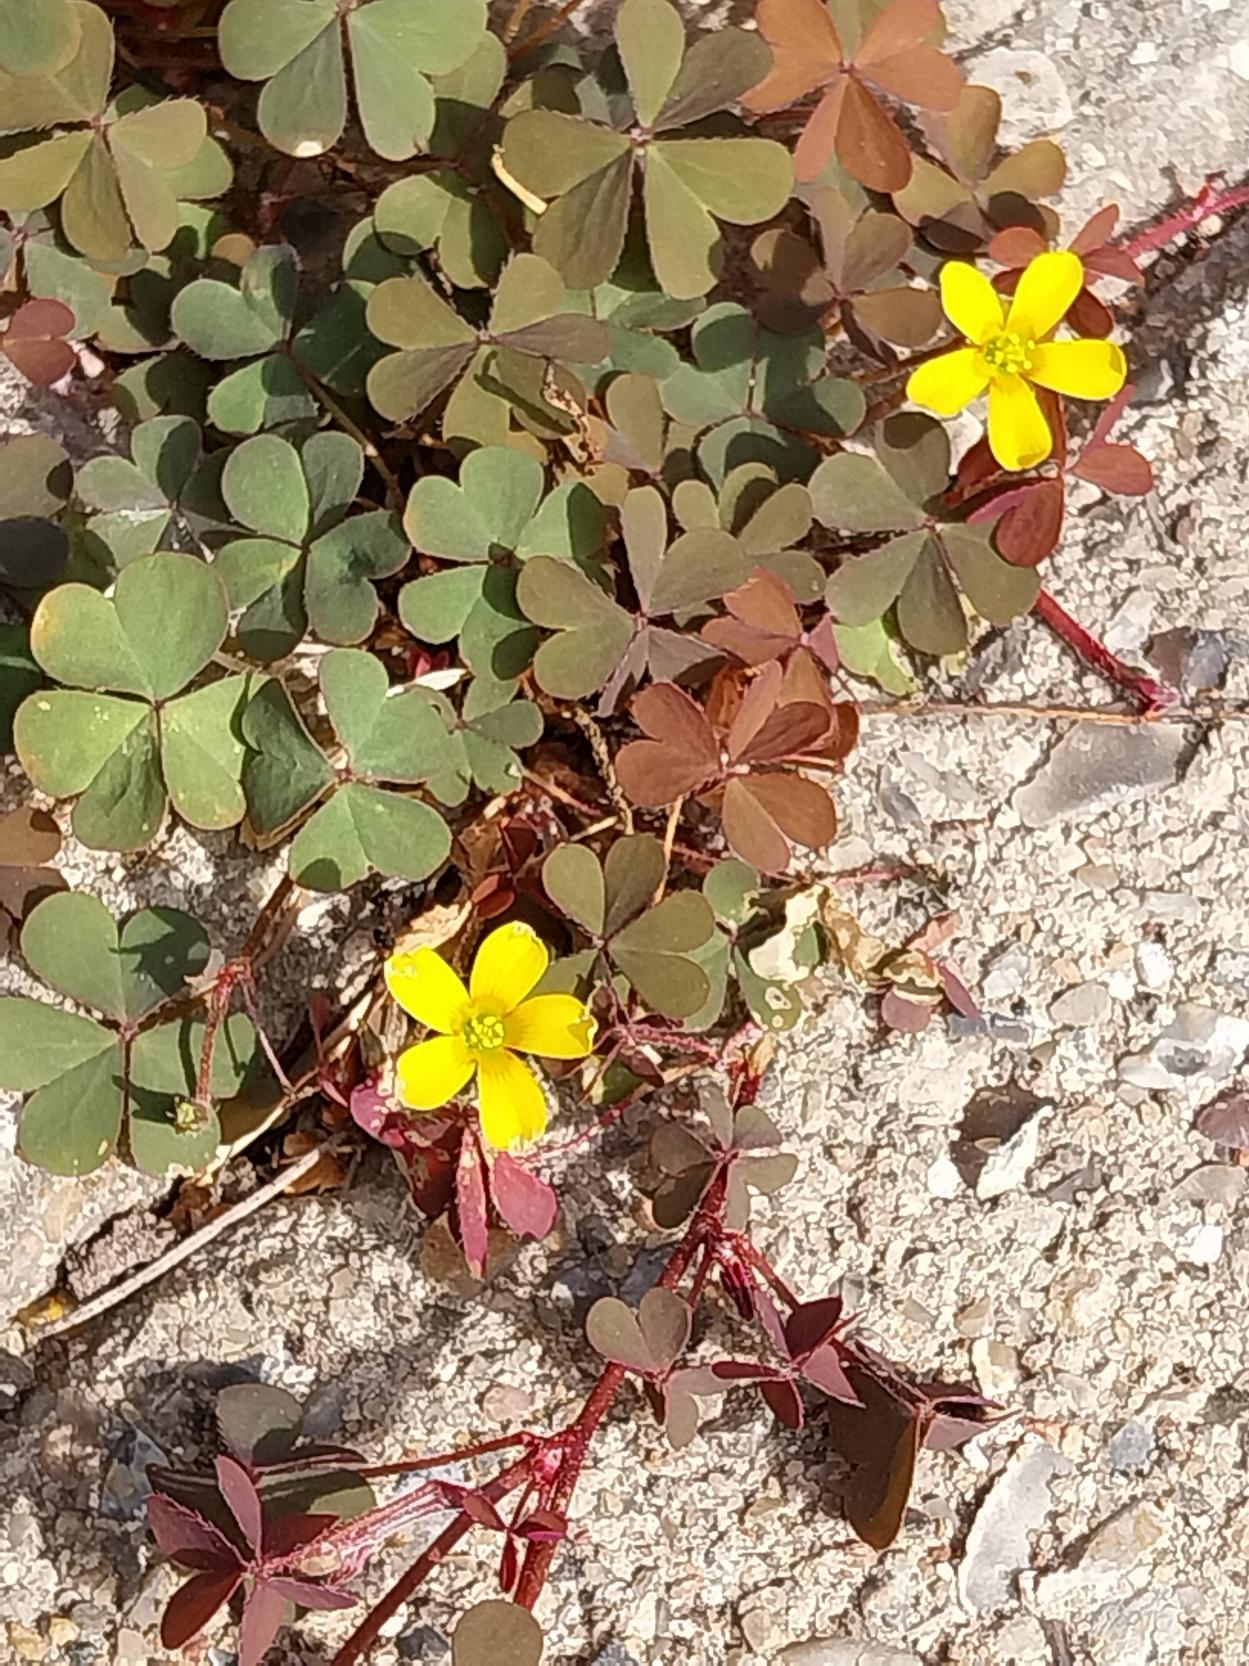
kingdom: Plantae
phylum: Tracheophyta
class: Magnoliopsida
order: Oxalidales
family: Oxalidaceae
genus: Oxalis
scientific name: Oxalis corniculata
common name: Nedliggende surkløver
